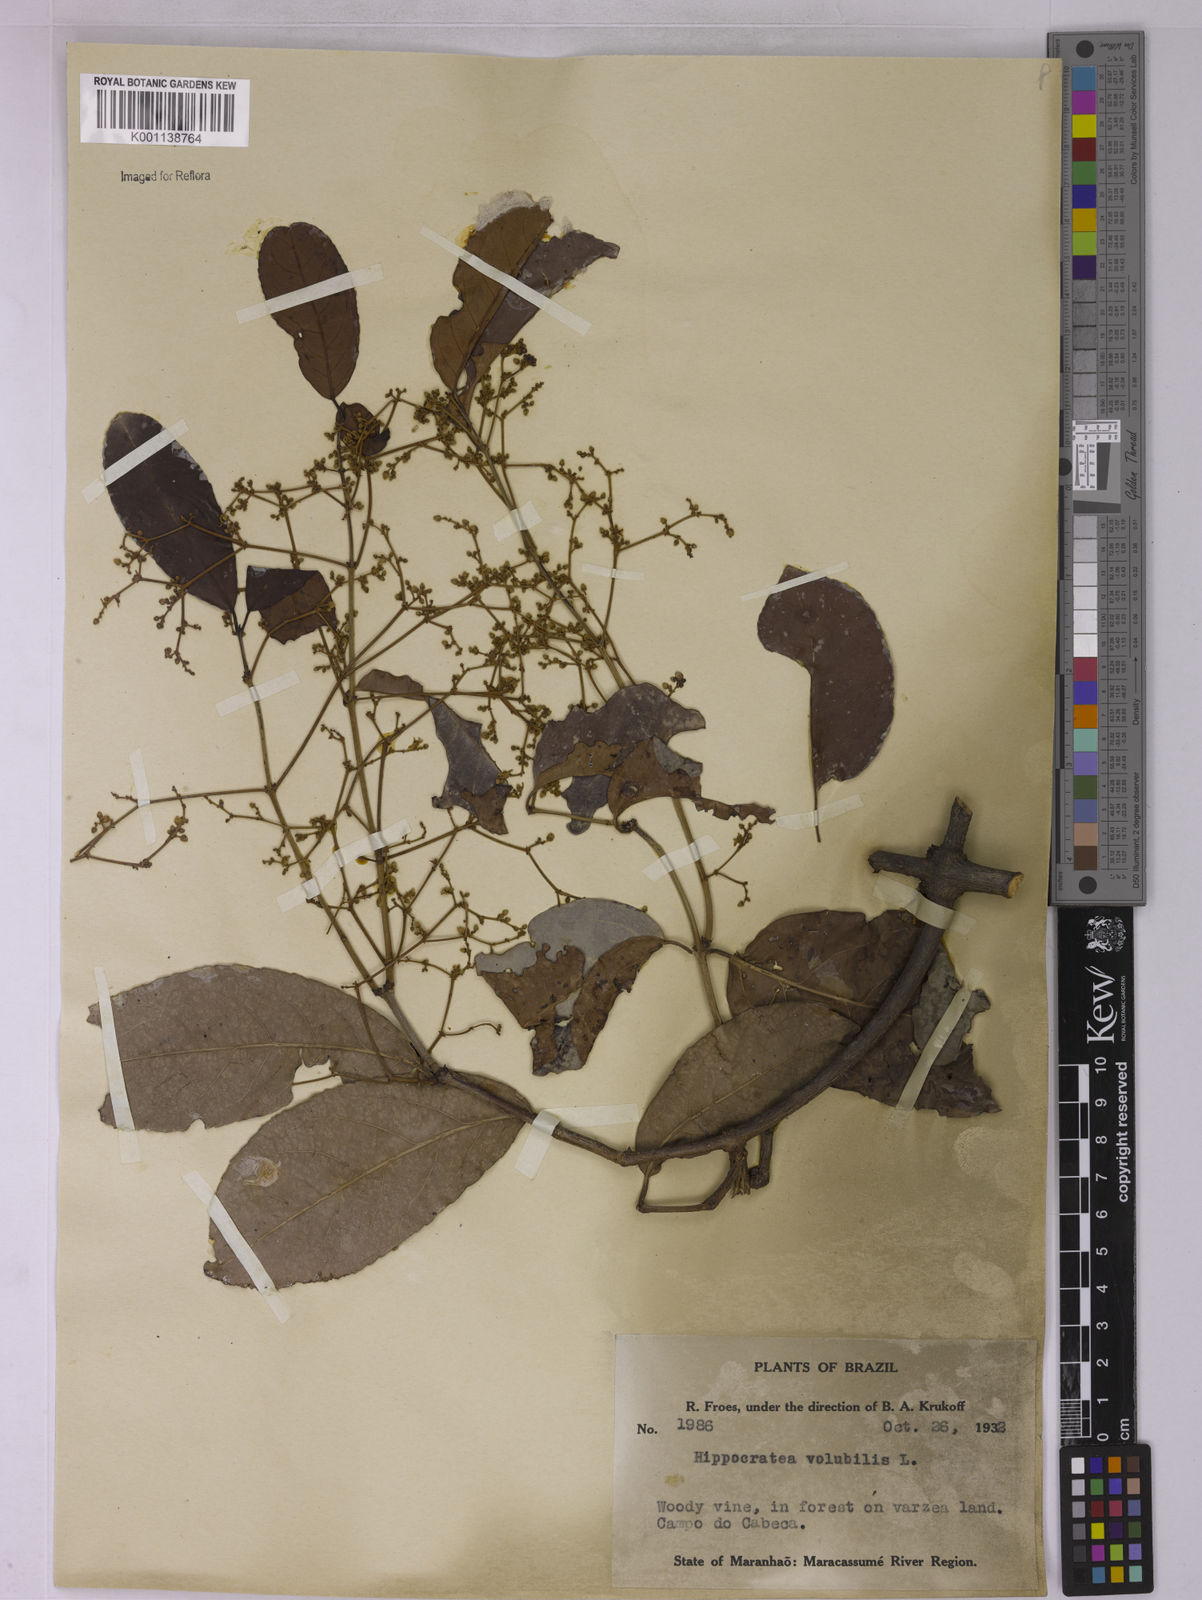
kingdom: Plantae
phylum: Tracheophyta
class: Magnoliopsida
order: Celastrales
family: Celastraceae
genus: Hippocratea
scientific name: Hippocratea volubilis
